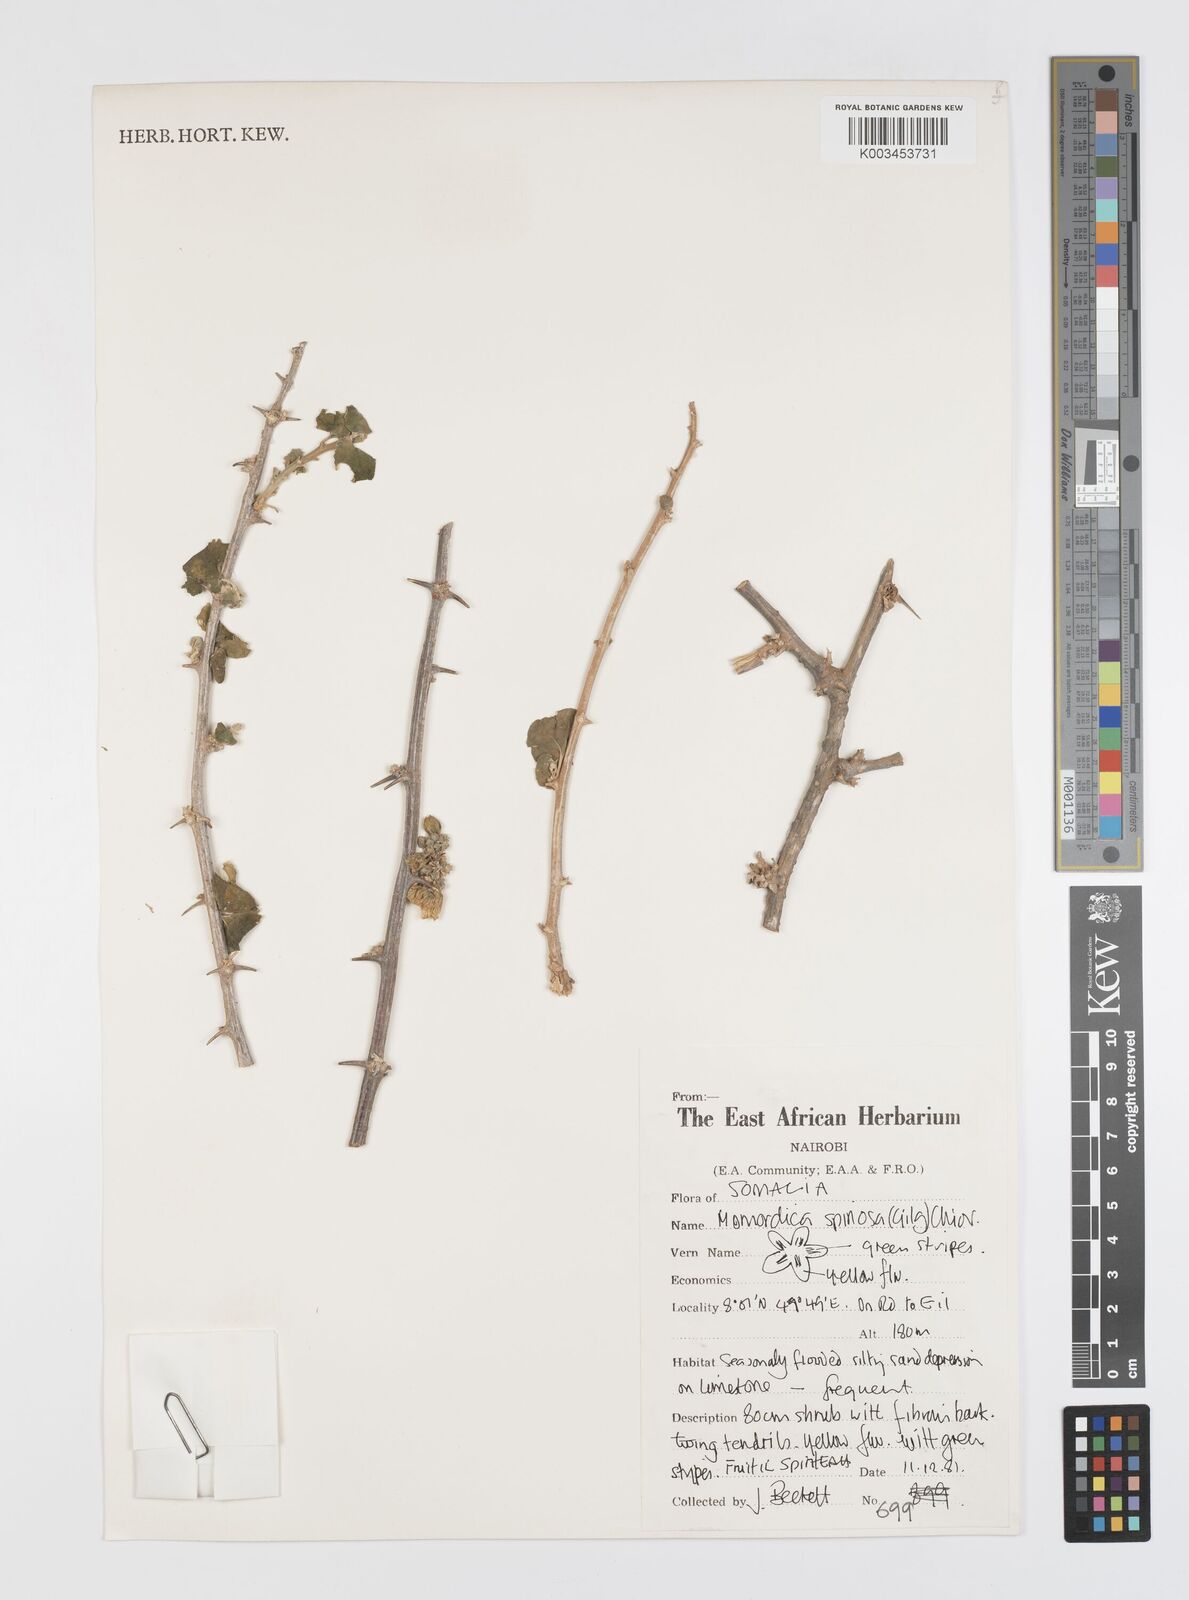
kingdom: Plantae
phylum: Tracheophyta
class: Magnoliopsida
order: Cucurbitales
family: Cucurbitaceae
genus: Momordica
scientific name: Momordica spinosa
